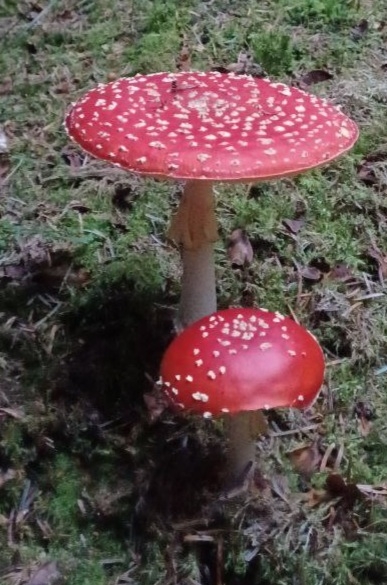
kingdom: Fungi
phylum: Basidiomycota
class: Agaricomycetes
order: Agaricales
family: Amanitaceae
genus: Amanita
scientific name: Amanita muscaria
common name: rød fluesvamp
